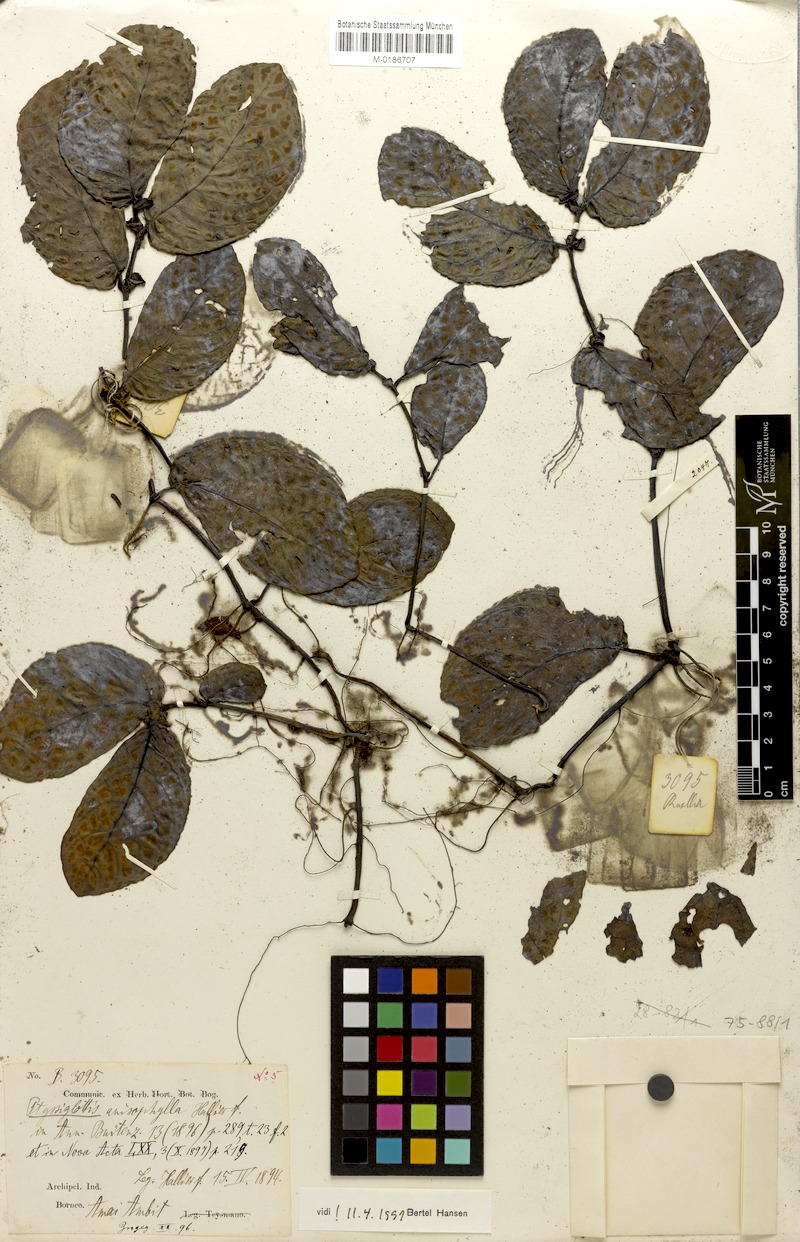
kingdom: Plantae
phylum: Tracheophyta
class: Magnoliopsida
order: Lamiales
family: Acanthaceae
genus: Ptyssiglottis
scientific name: Ptyssiglottis granulata
